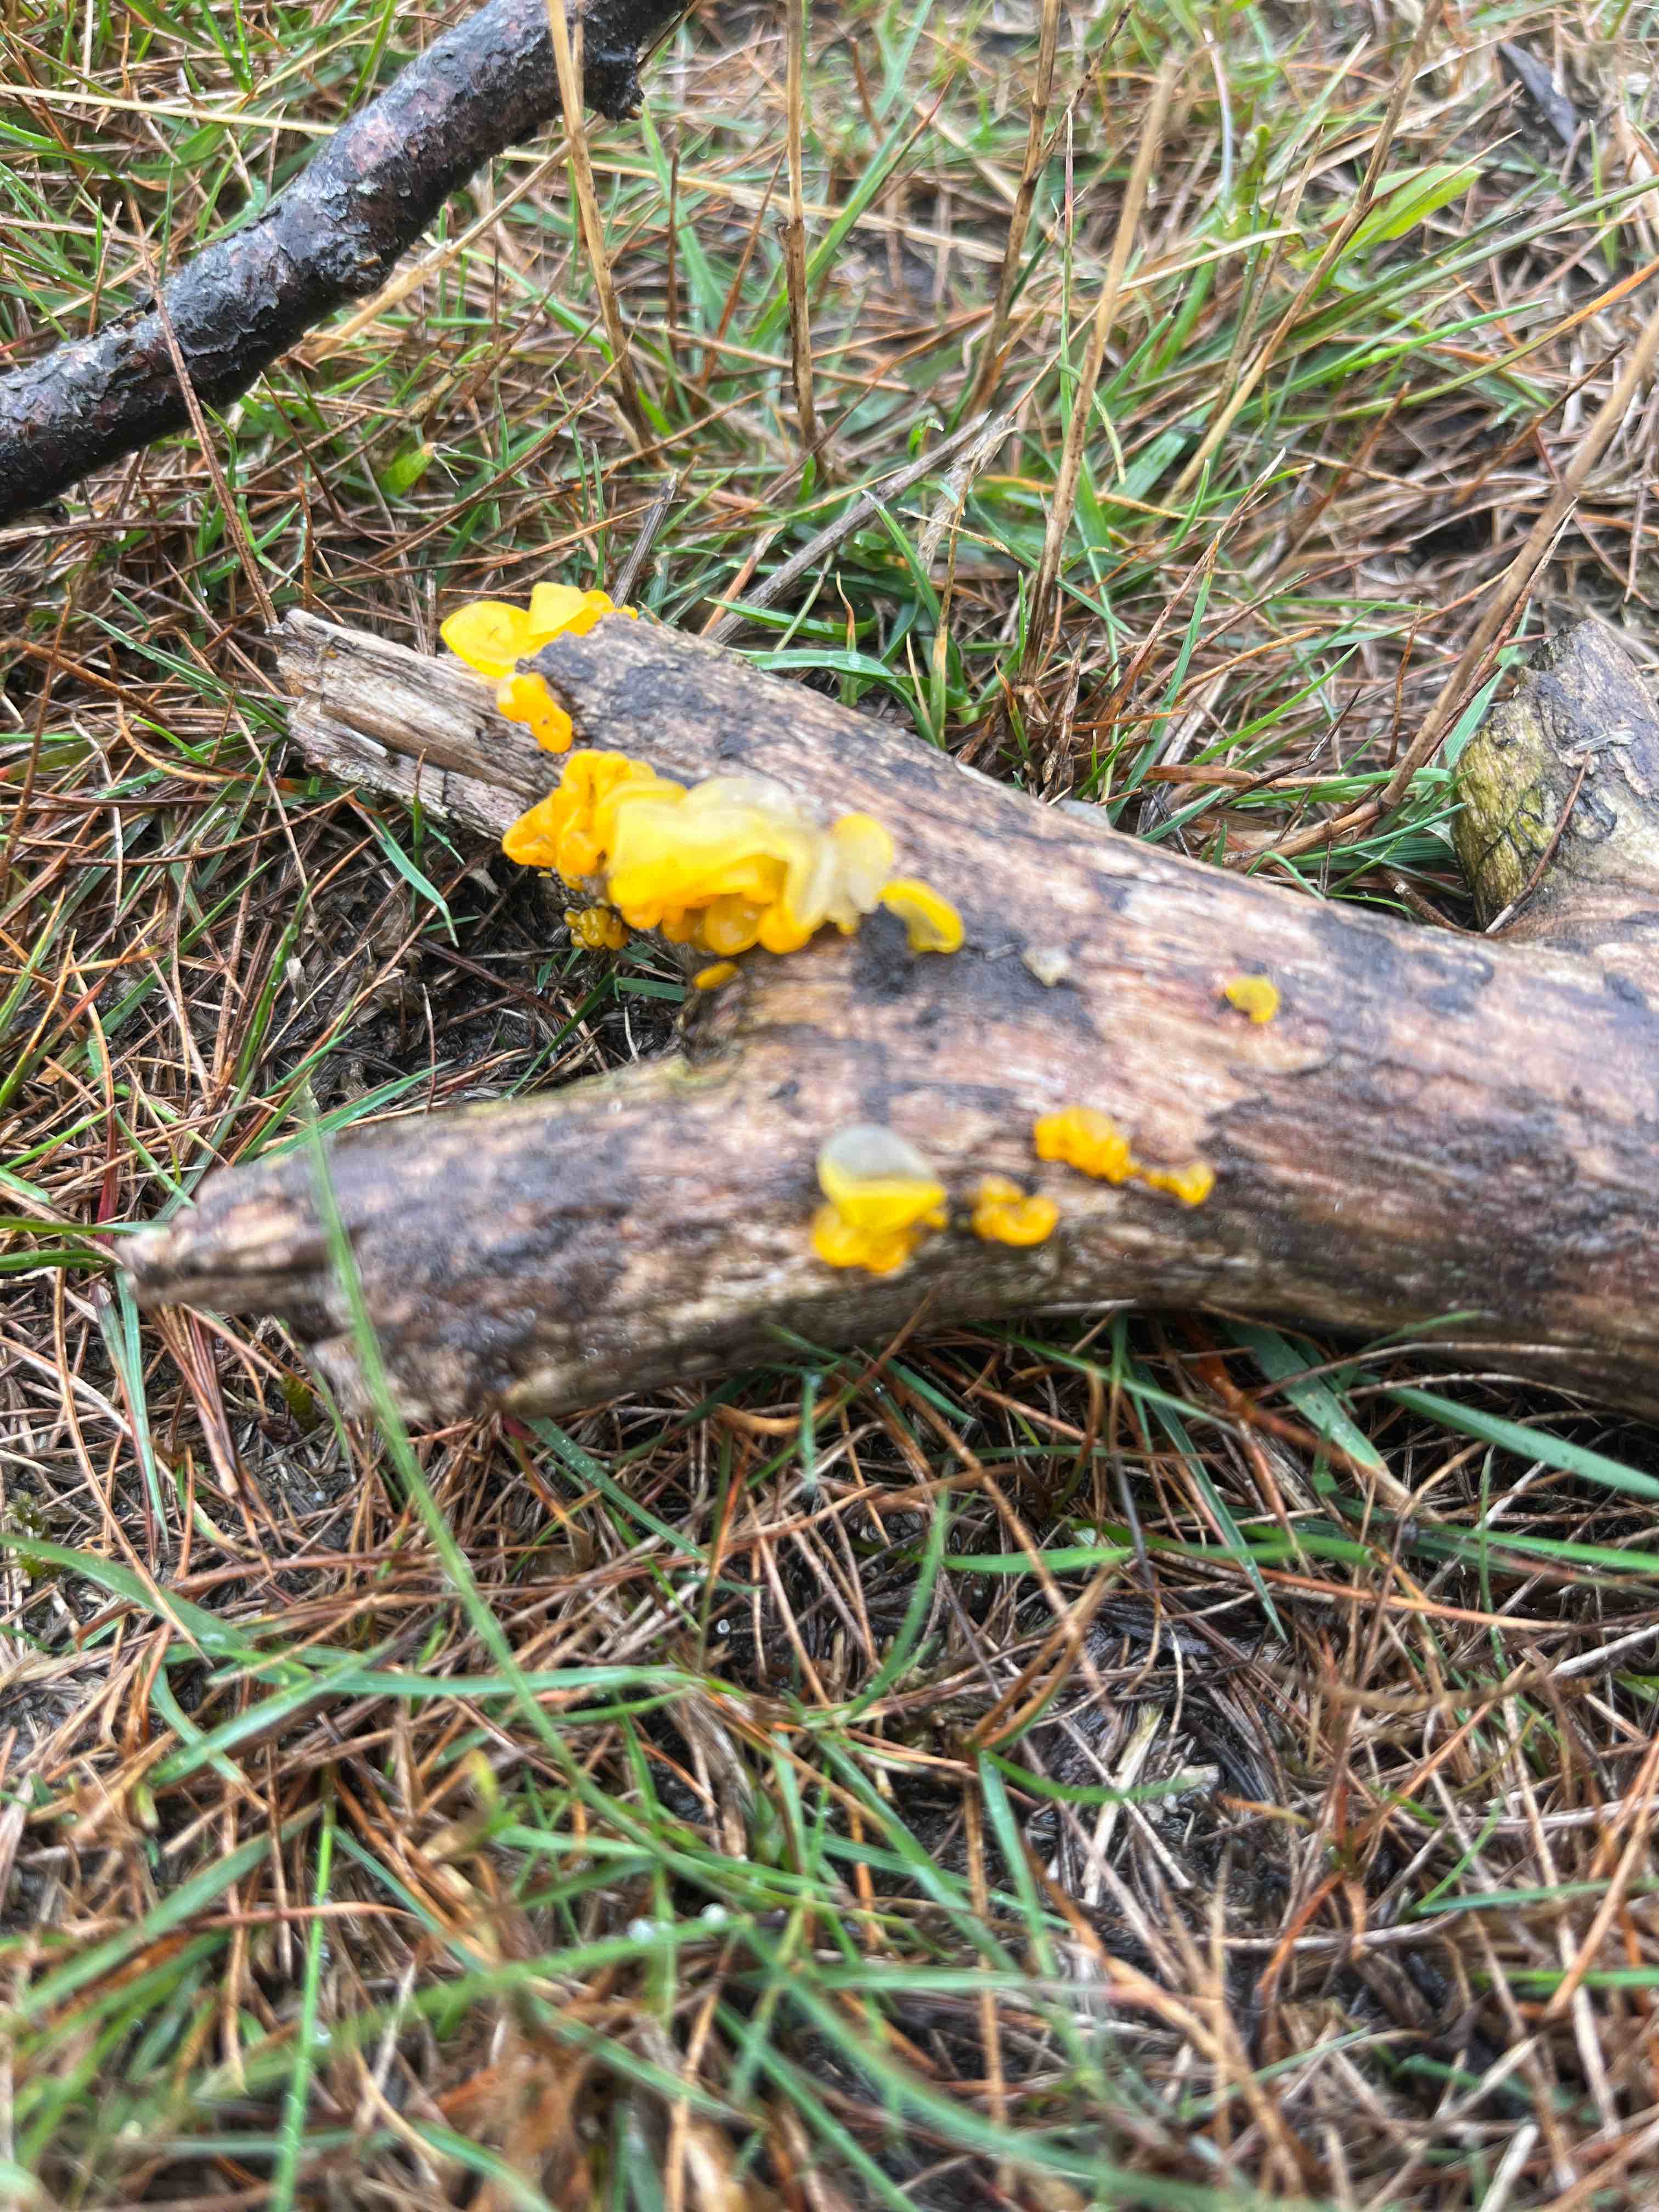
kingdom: Fungi
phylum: Basidiomycota
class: Tremellomycetes
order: Tremellales
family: Tremellaceae
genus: Tremella
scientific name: Tremella mesenterica
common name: gul bævresvamp
